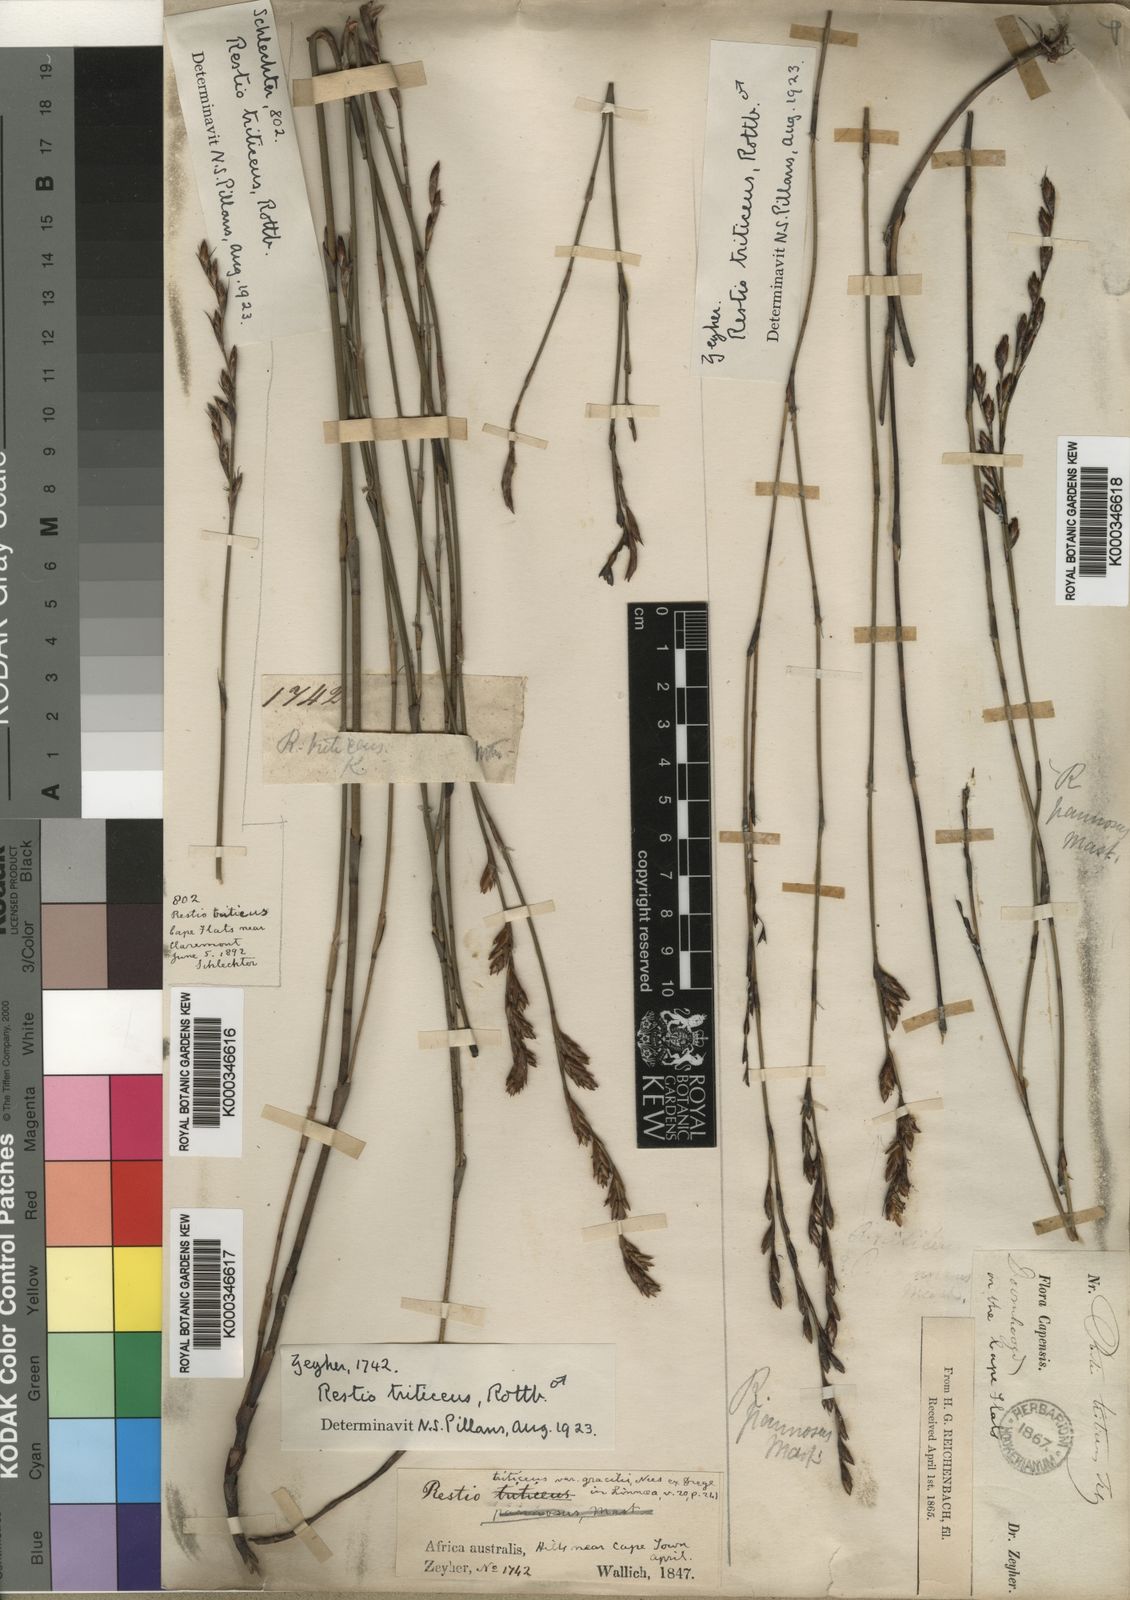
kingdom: Plantae
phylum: Tracheophyta
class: Liliopsida
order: Poales
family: Restionaceae
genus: Restio
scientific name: Restio triticeus
